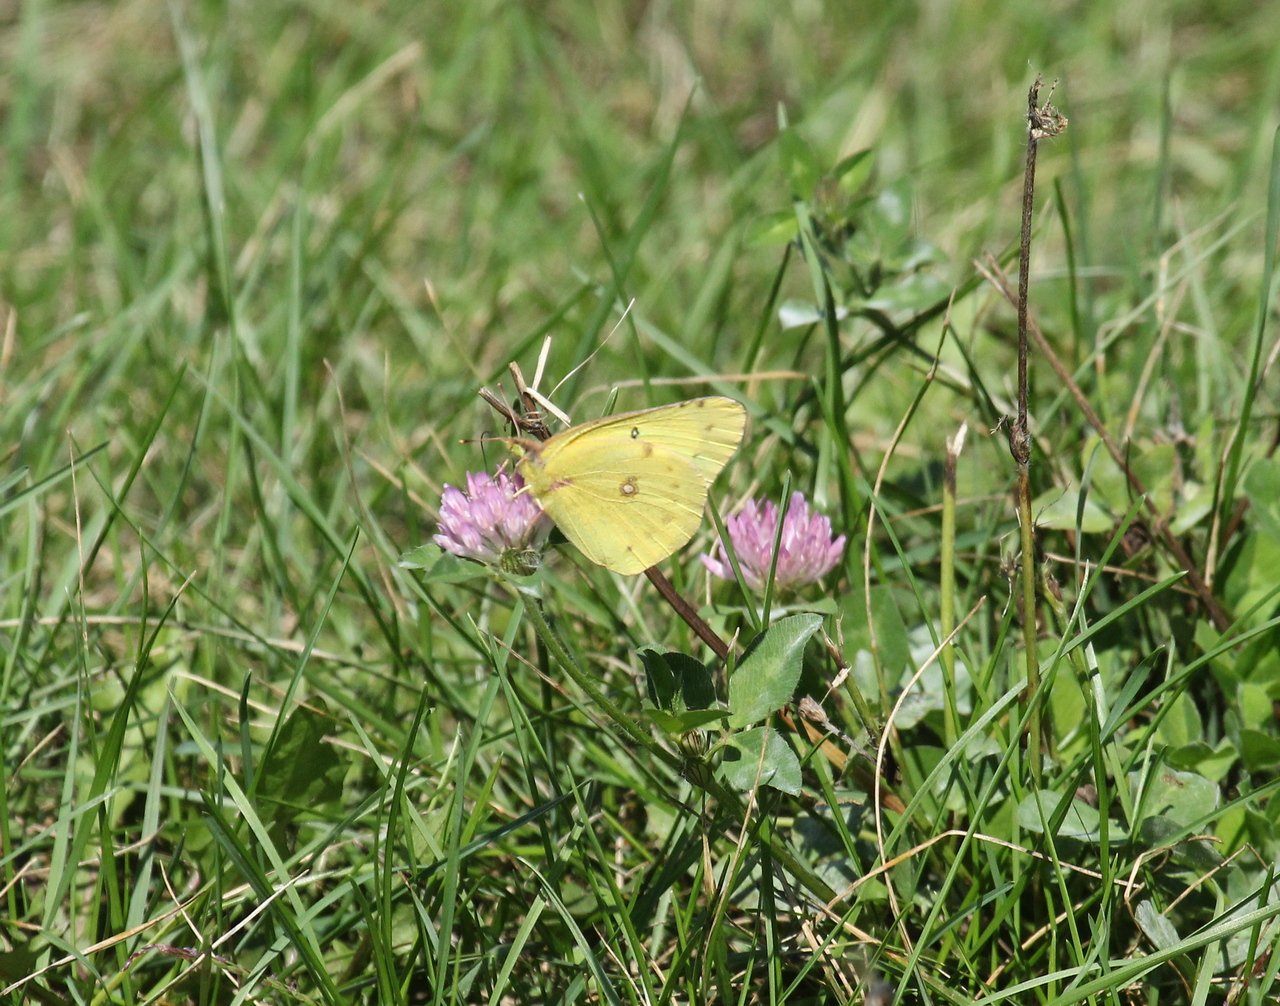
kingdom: Animalia
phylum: Arthropoda
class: Insecta
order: Lepidoptera
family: Pieridae
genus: Colias
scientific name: Colias philodice
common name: Clouded Sulphur
